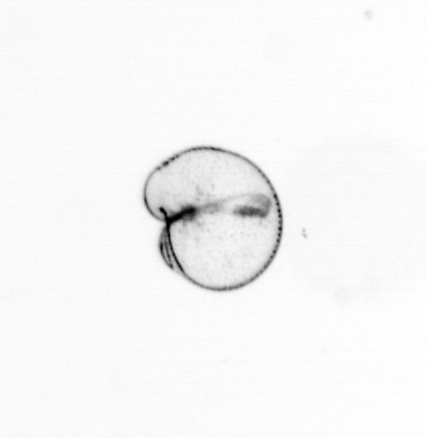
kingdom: Chromista
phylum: Myzozoa
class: Dinophyceae
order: Noctilucales
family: Noctilucaceae
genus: Noctiluca
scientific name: Noctiluca scintillans
